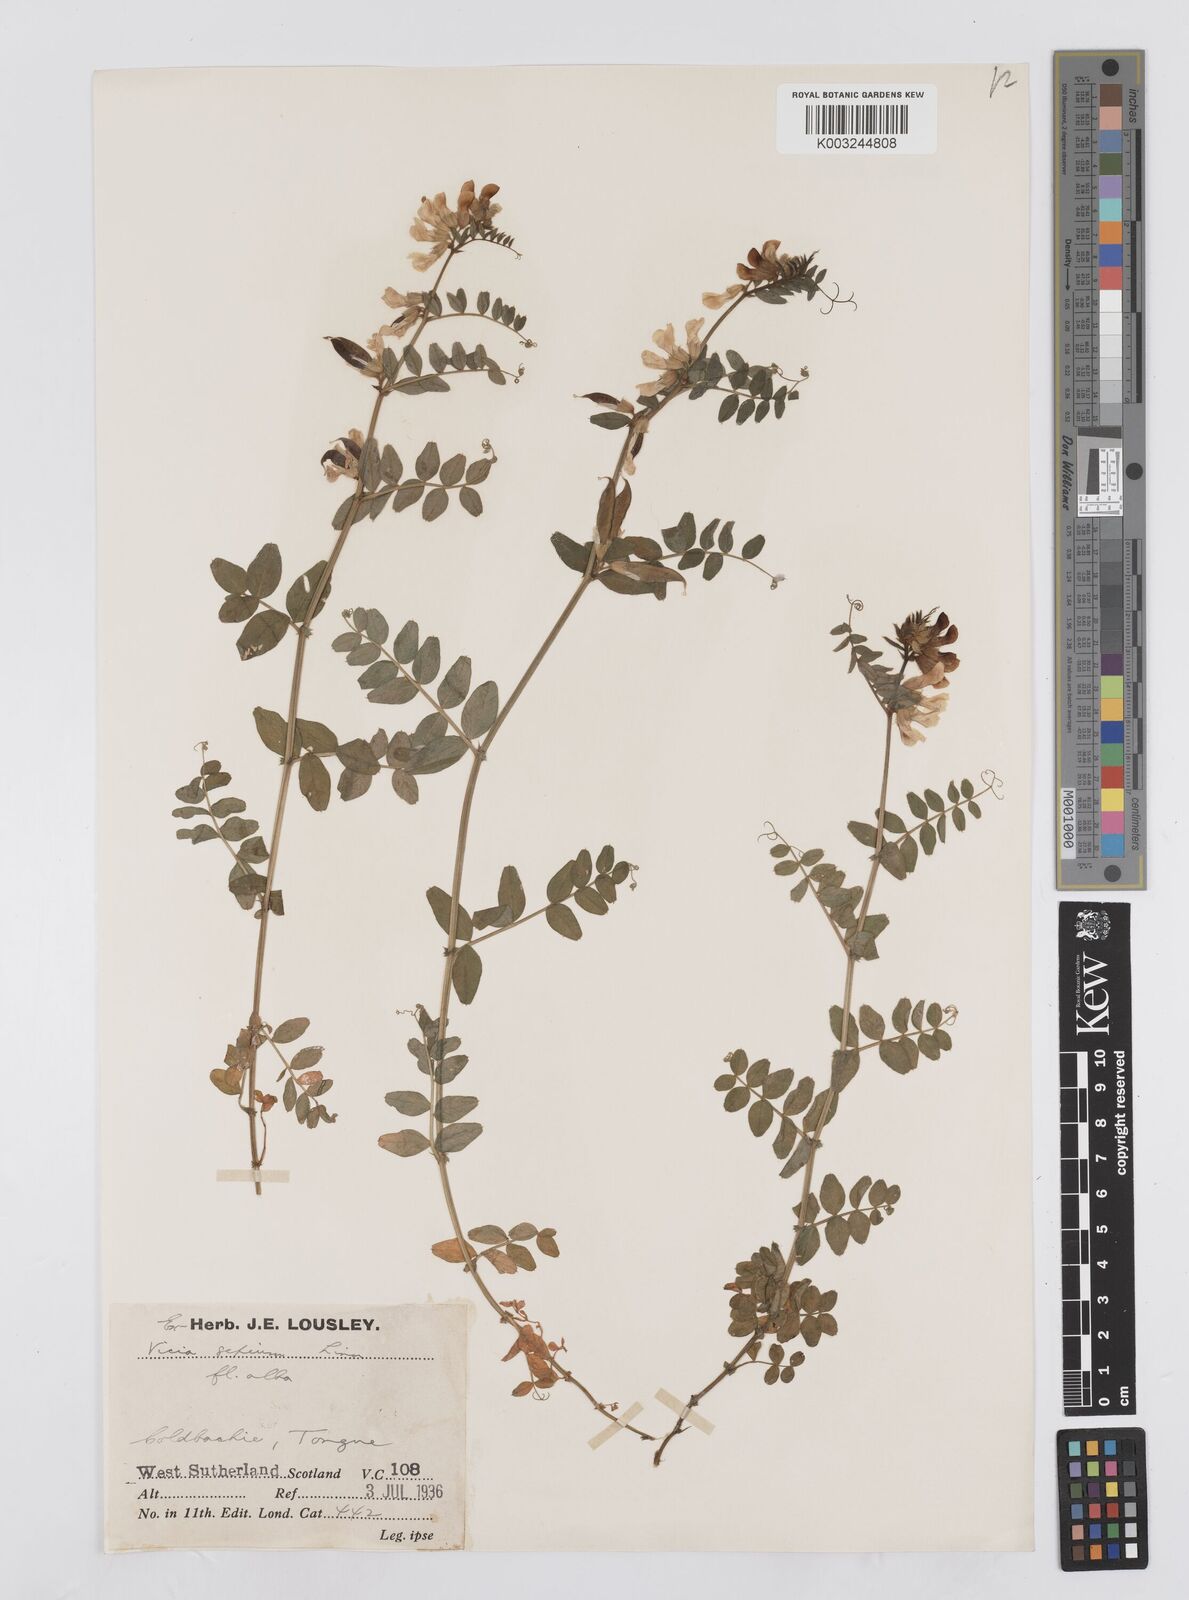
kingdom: Plantae
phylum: Tracheophyta
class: Magnoliopsida
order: Fabales
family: Fabaceae
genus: Vicia
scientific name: Vicia sepium
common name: Bush vetch
